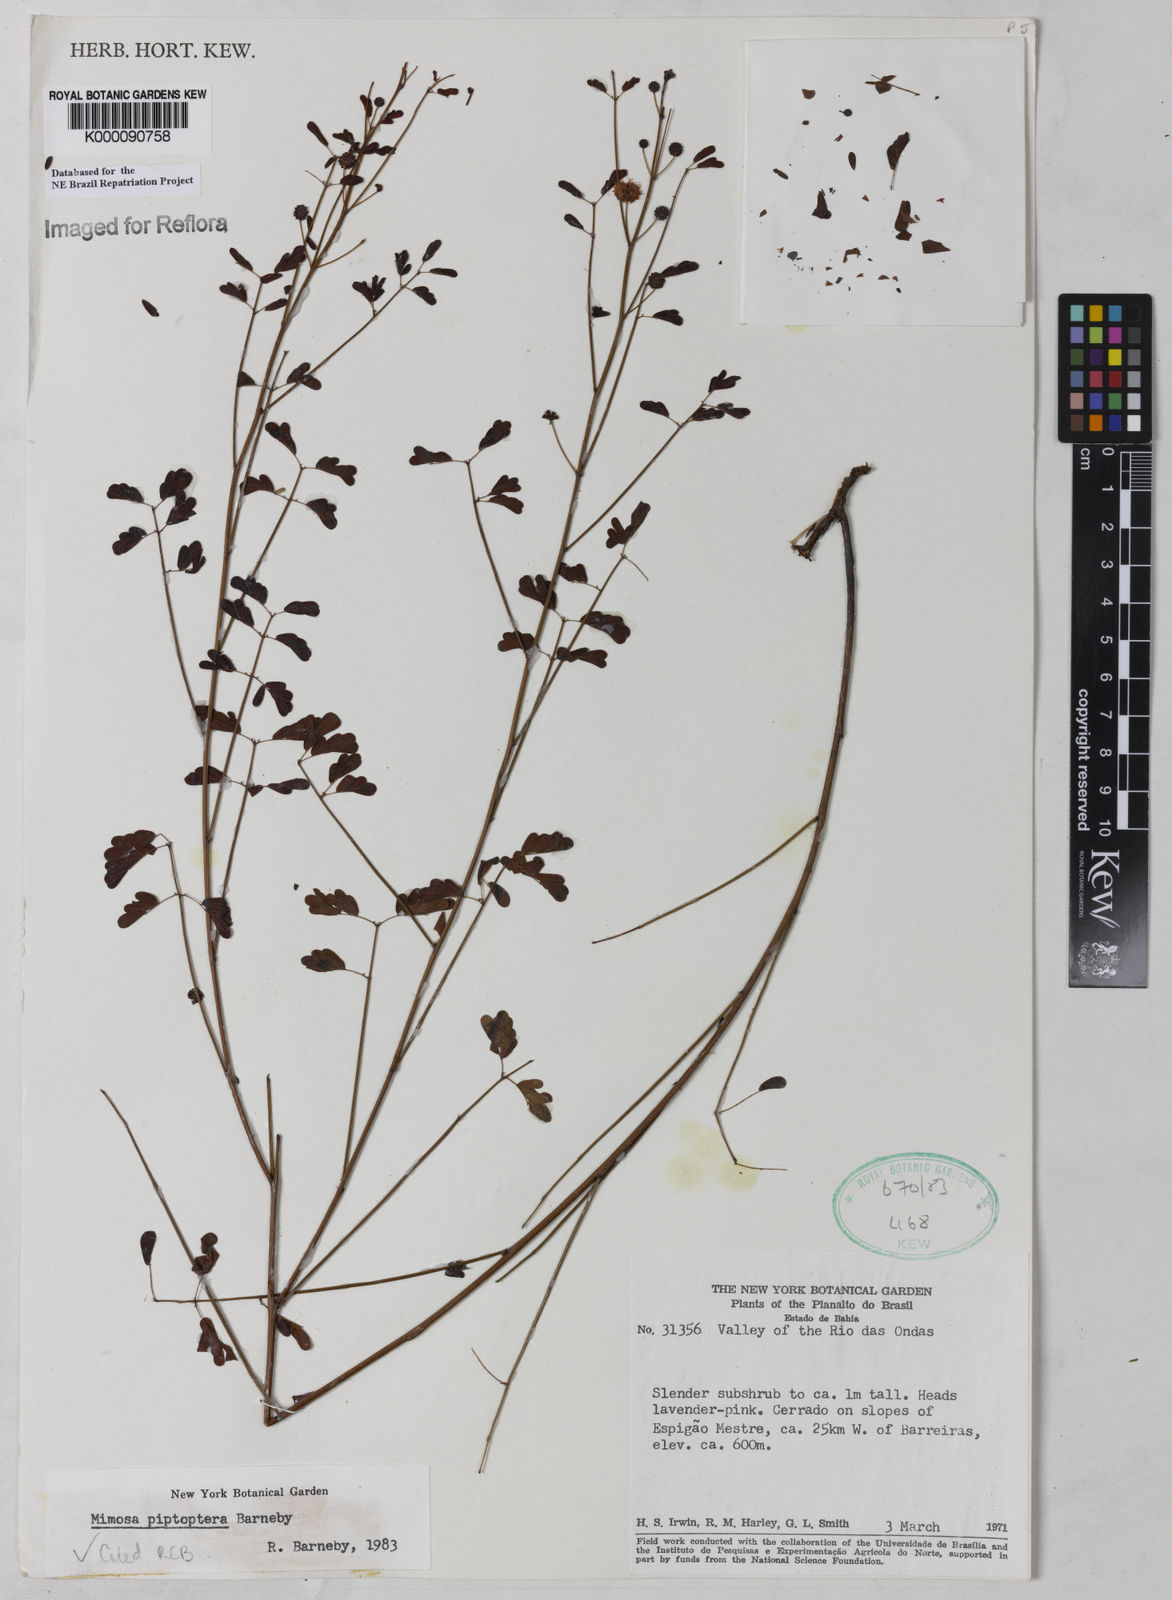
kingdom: Plantae
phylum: Tracheophyta
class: Magnoliopsida
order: Fabales
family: Fabaceae
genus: Mimosa
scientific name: Mimosa piptoptera
